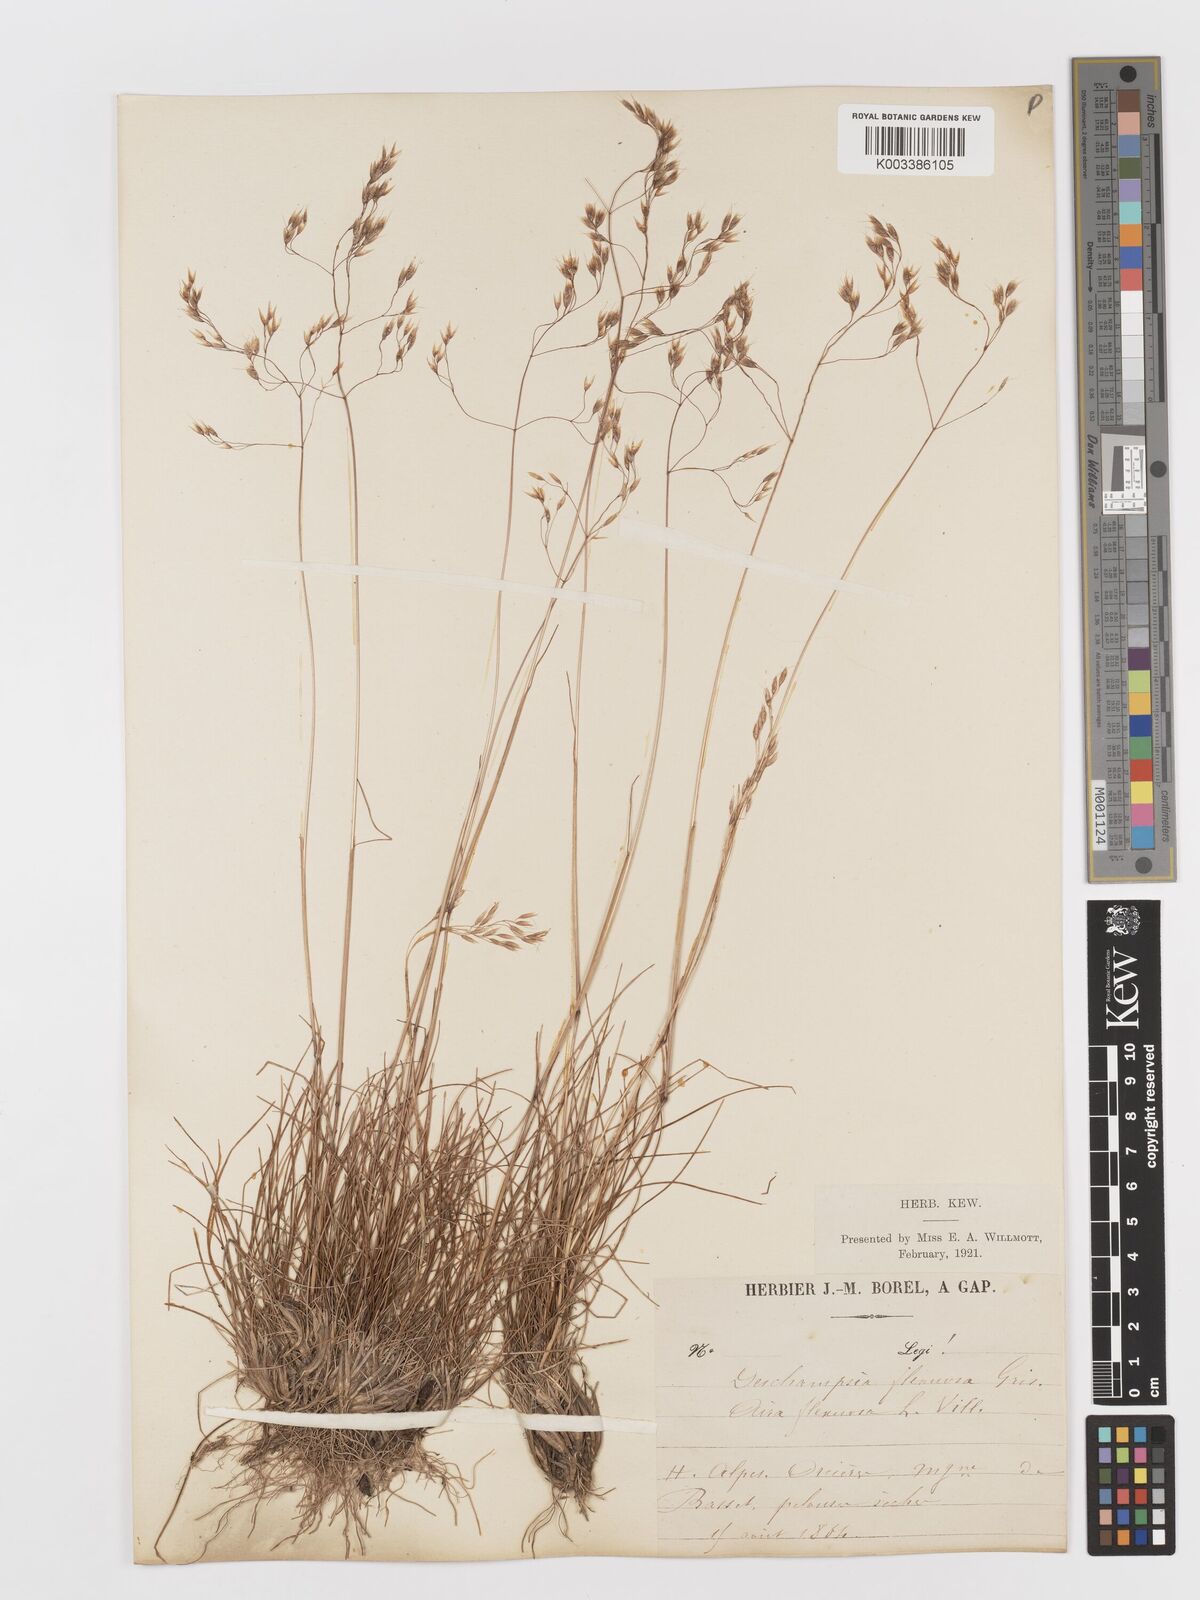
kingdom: Plantae
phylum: Tracheophyta
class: Liliopsida
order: Poales
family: Poaceae
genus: Avenella
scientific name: Avenella flexuosa
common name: Wavy hairgrass
